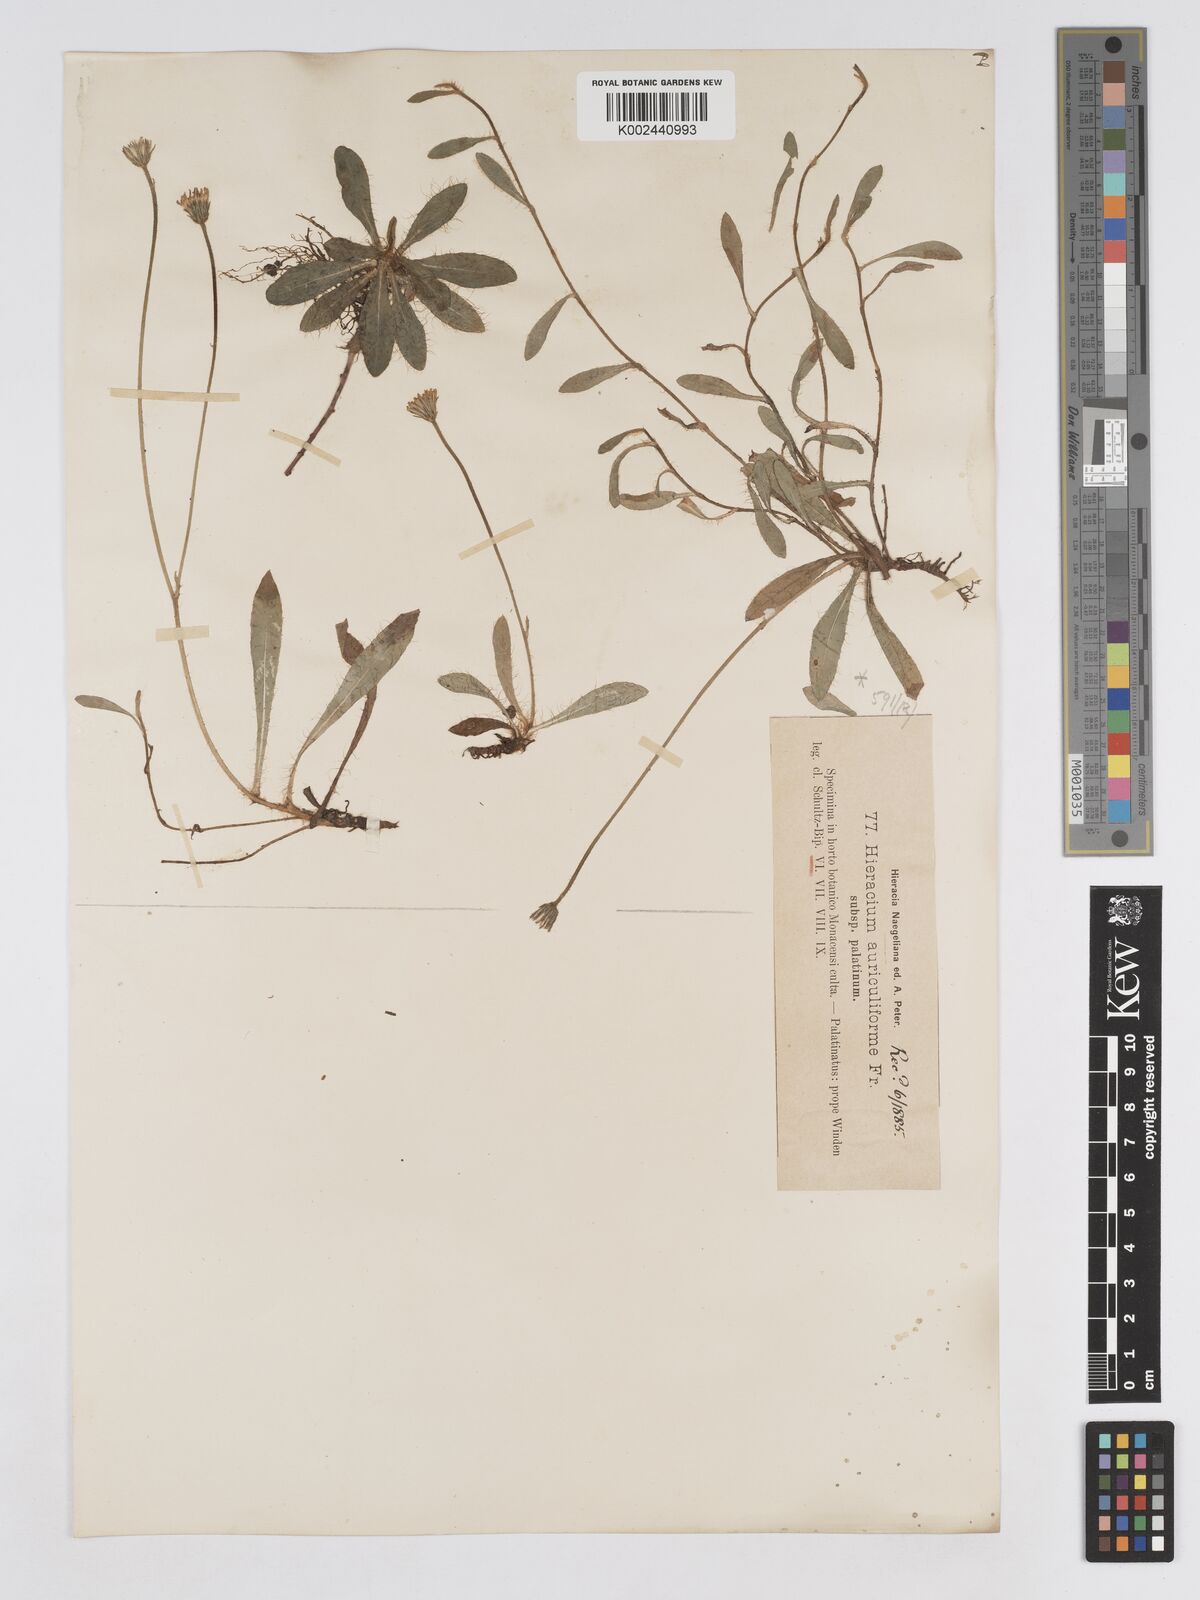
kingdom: Plantae
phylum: Tracheophyta
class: Magnoliopsida
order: Asterales
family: Asteraceae
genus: Pilosella
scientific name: Pilosella schultesii
